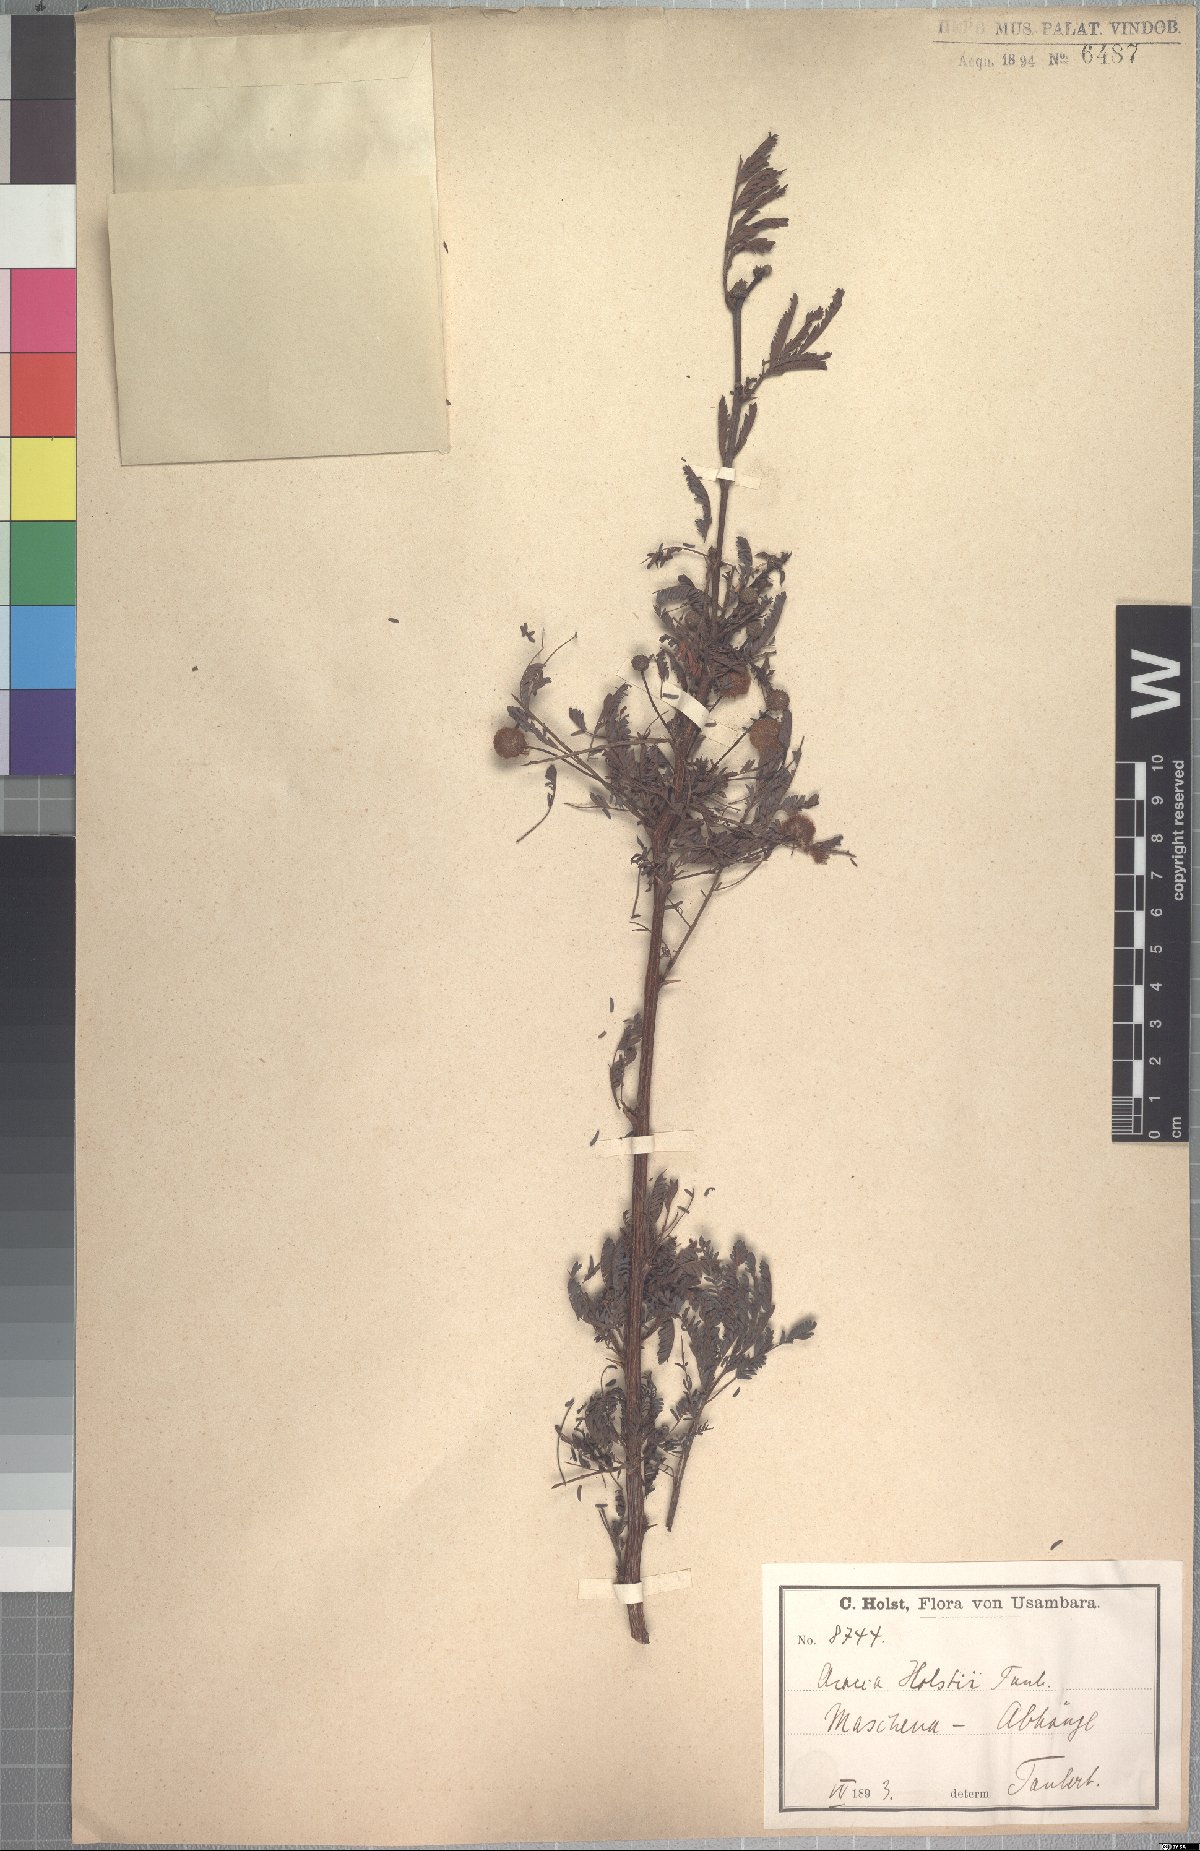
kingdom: Plantae
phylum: Tracheophyta
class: Magnoliopsida
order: Fabales
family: Fabaceae
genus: Vachellia
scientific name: Vachellia hockii
